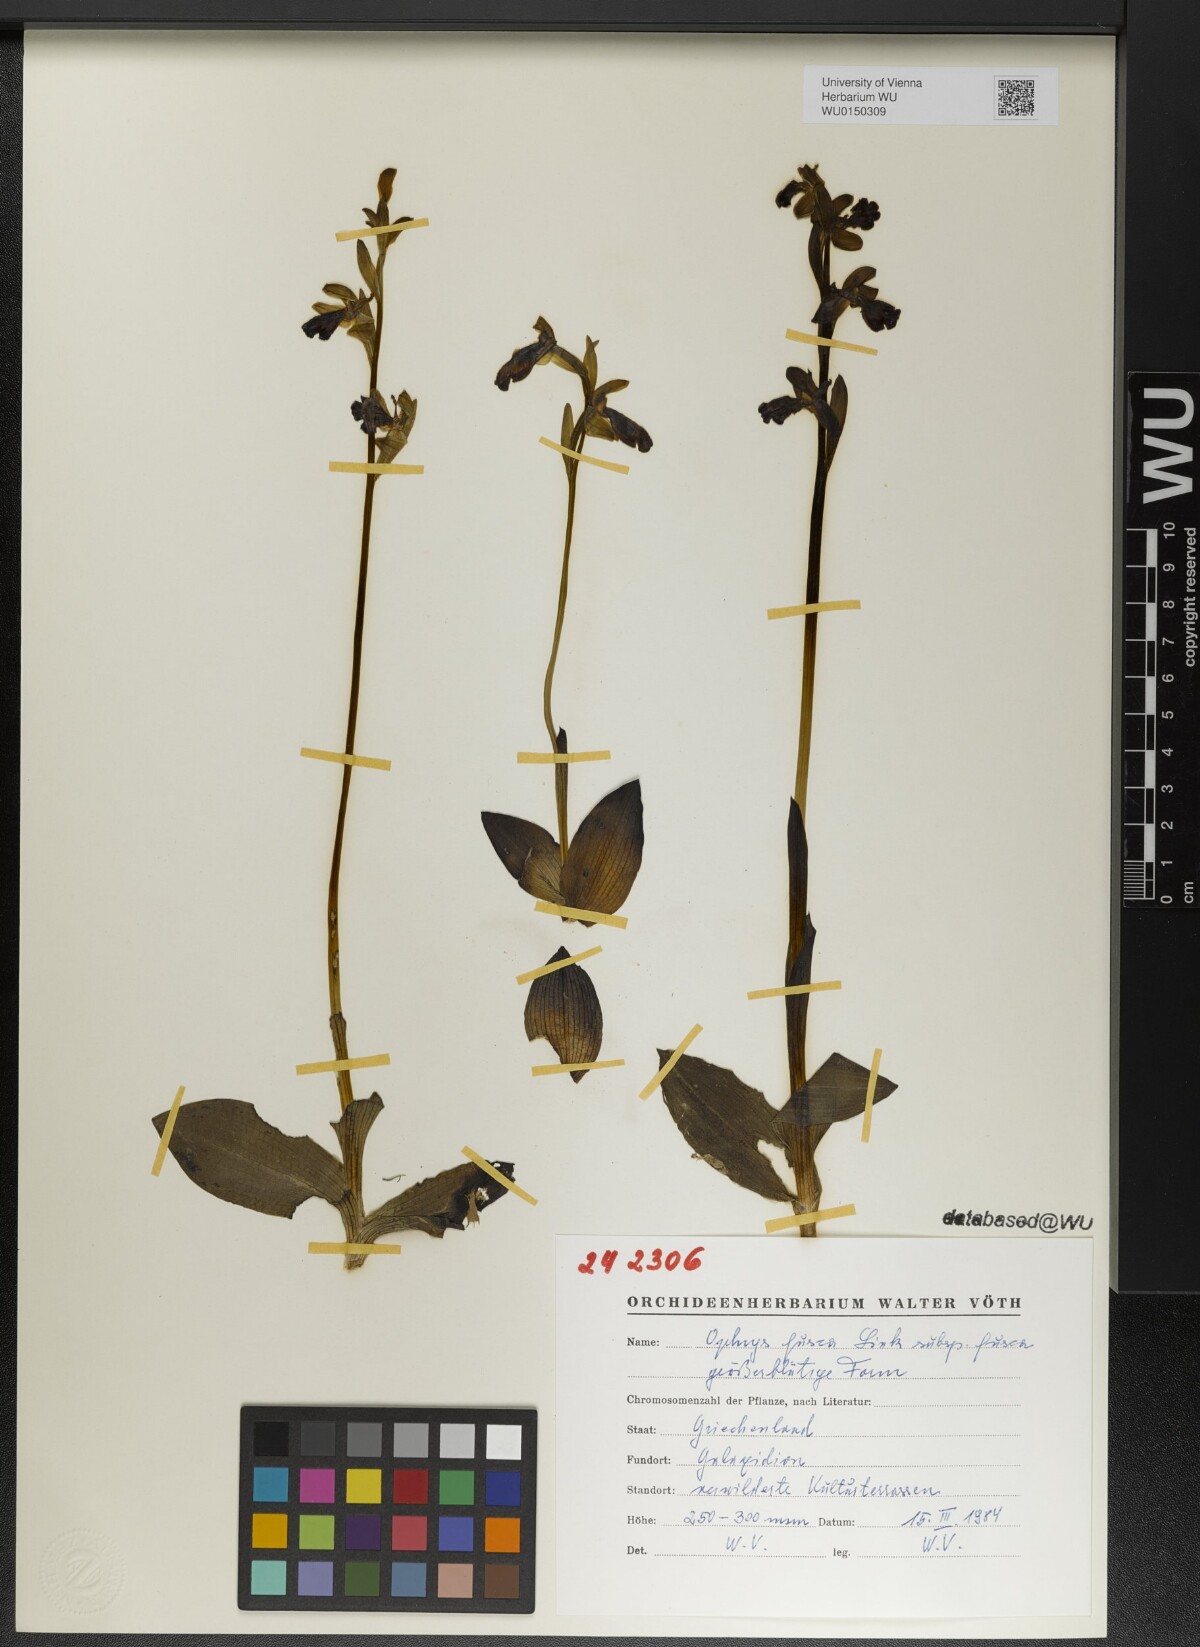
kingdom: Plantae
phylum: Tracheophyta
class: Liliopsida
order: Asparagales
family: Orchidaceae
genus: Ophrys
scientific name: Ophrys fusca
